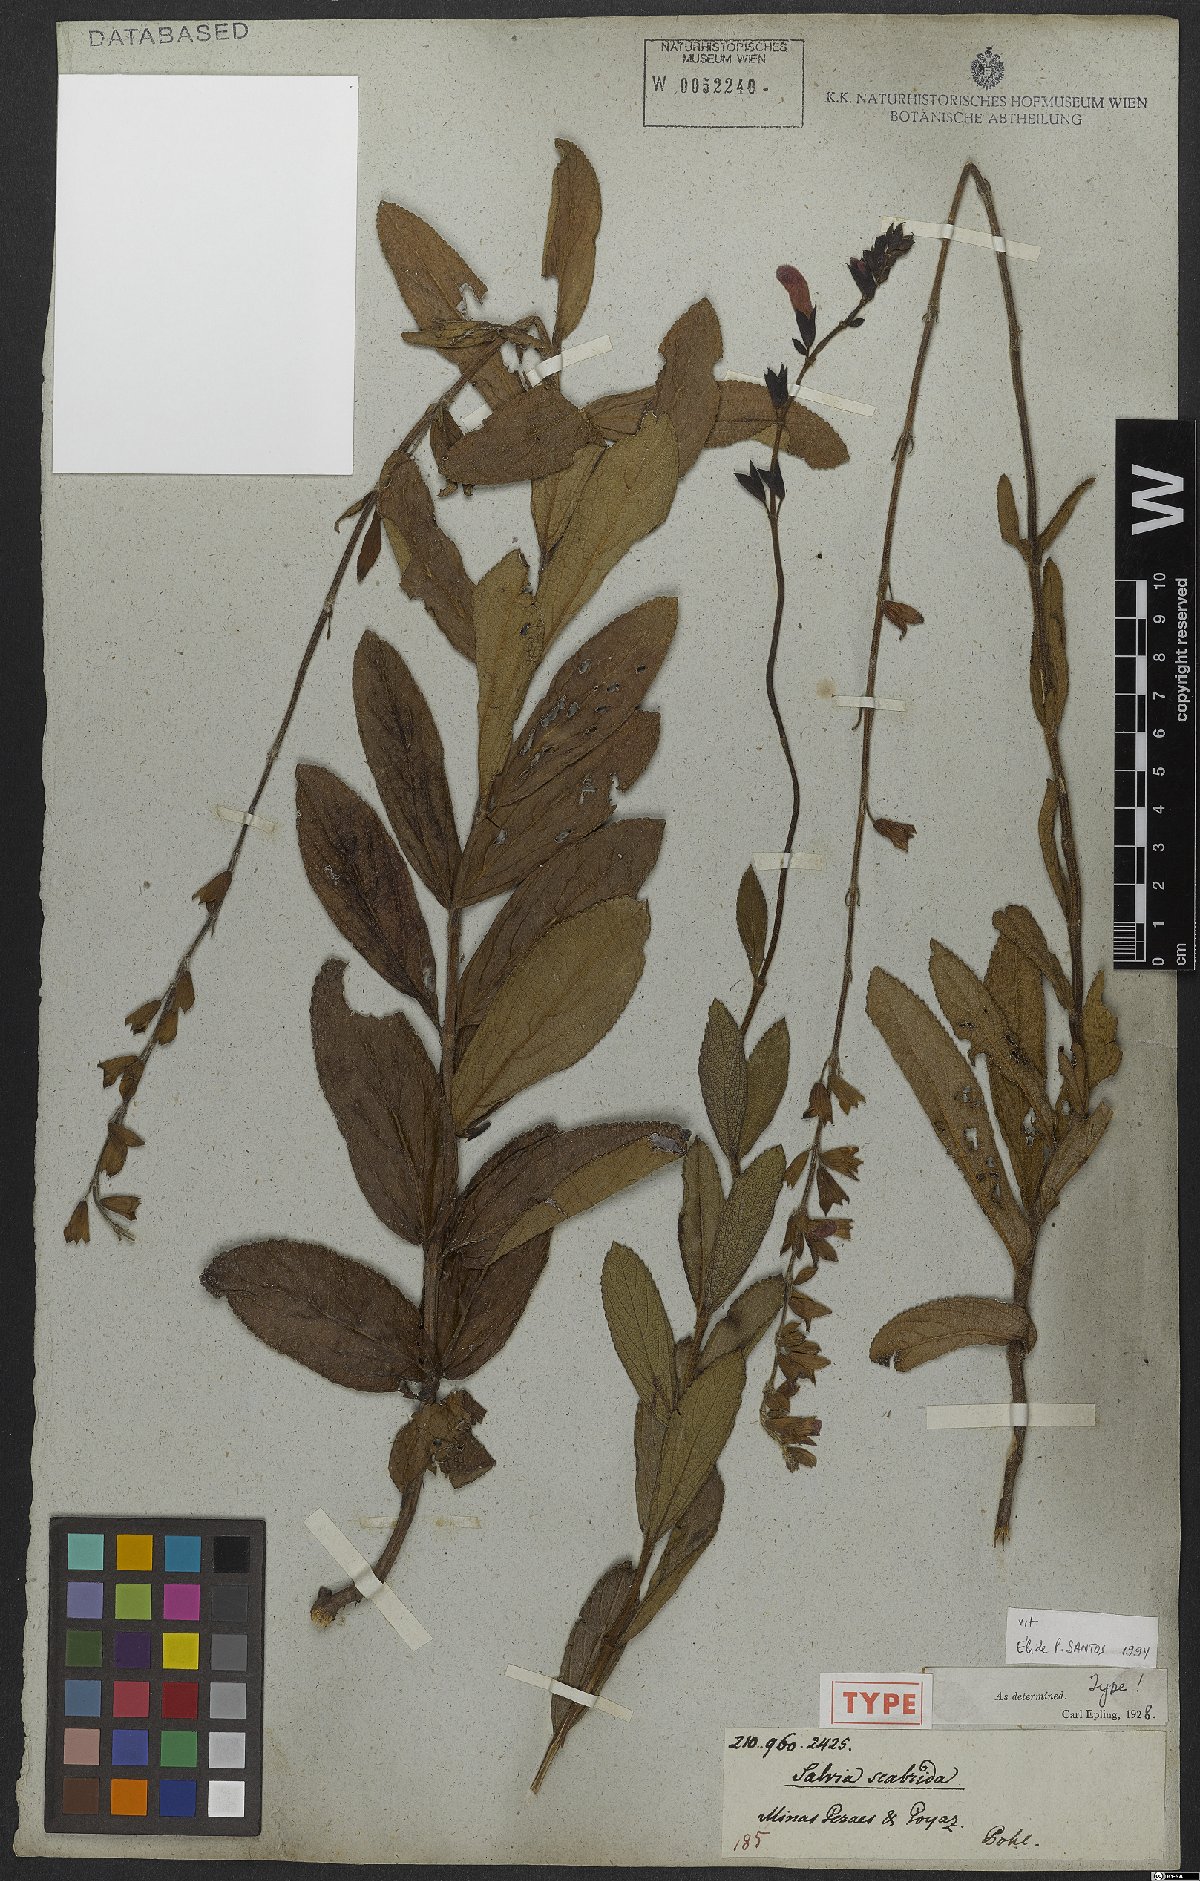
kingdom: Plantae
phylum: Tracheophyta
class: Magnoliopsida
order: Lamiales
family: Lamiaceae
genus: Salvia
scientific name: Salvia scabrida
